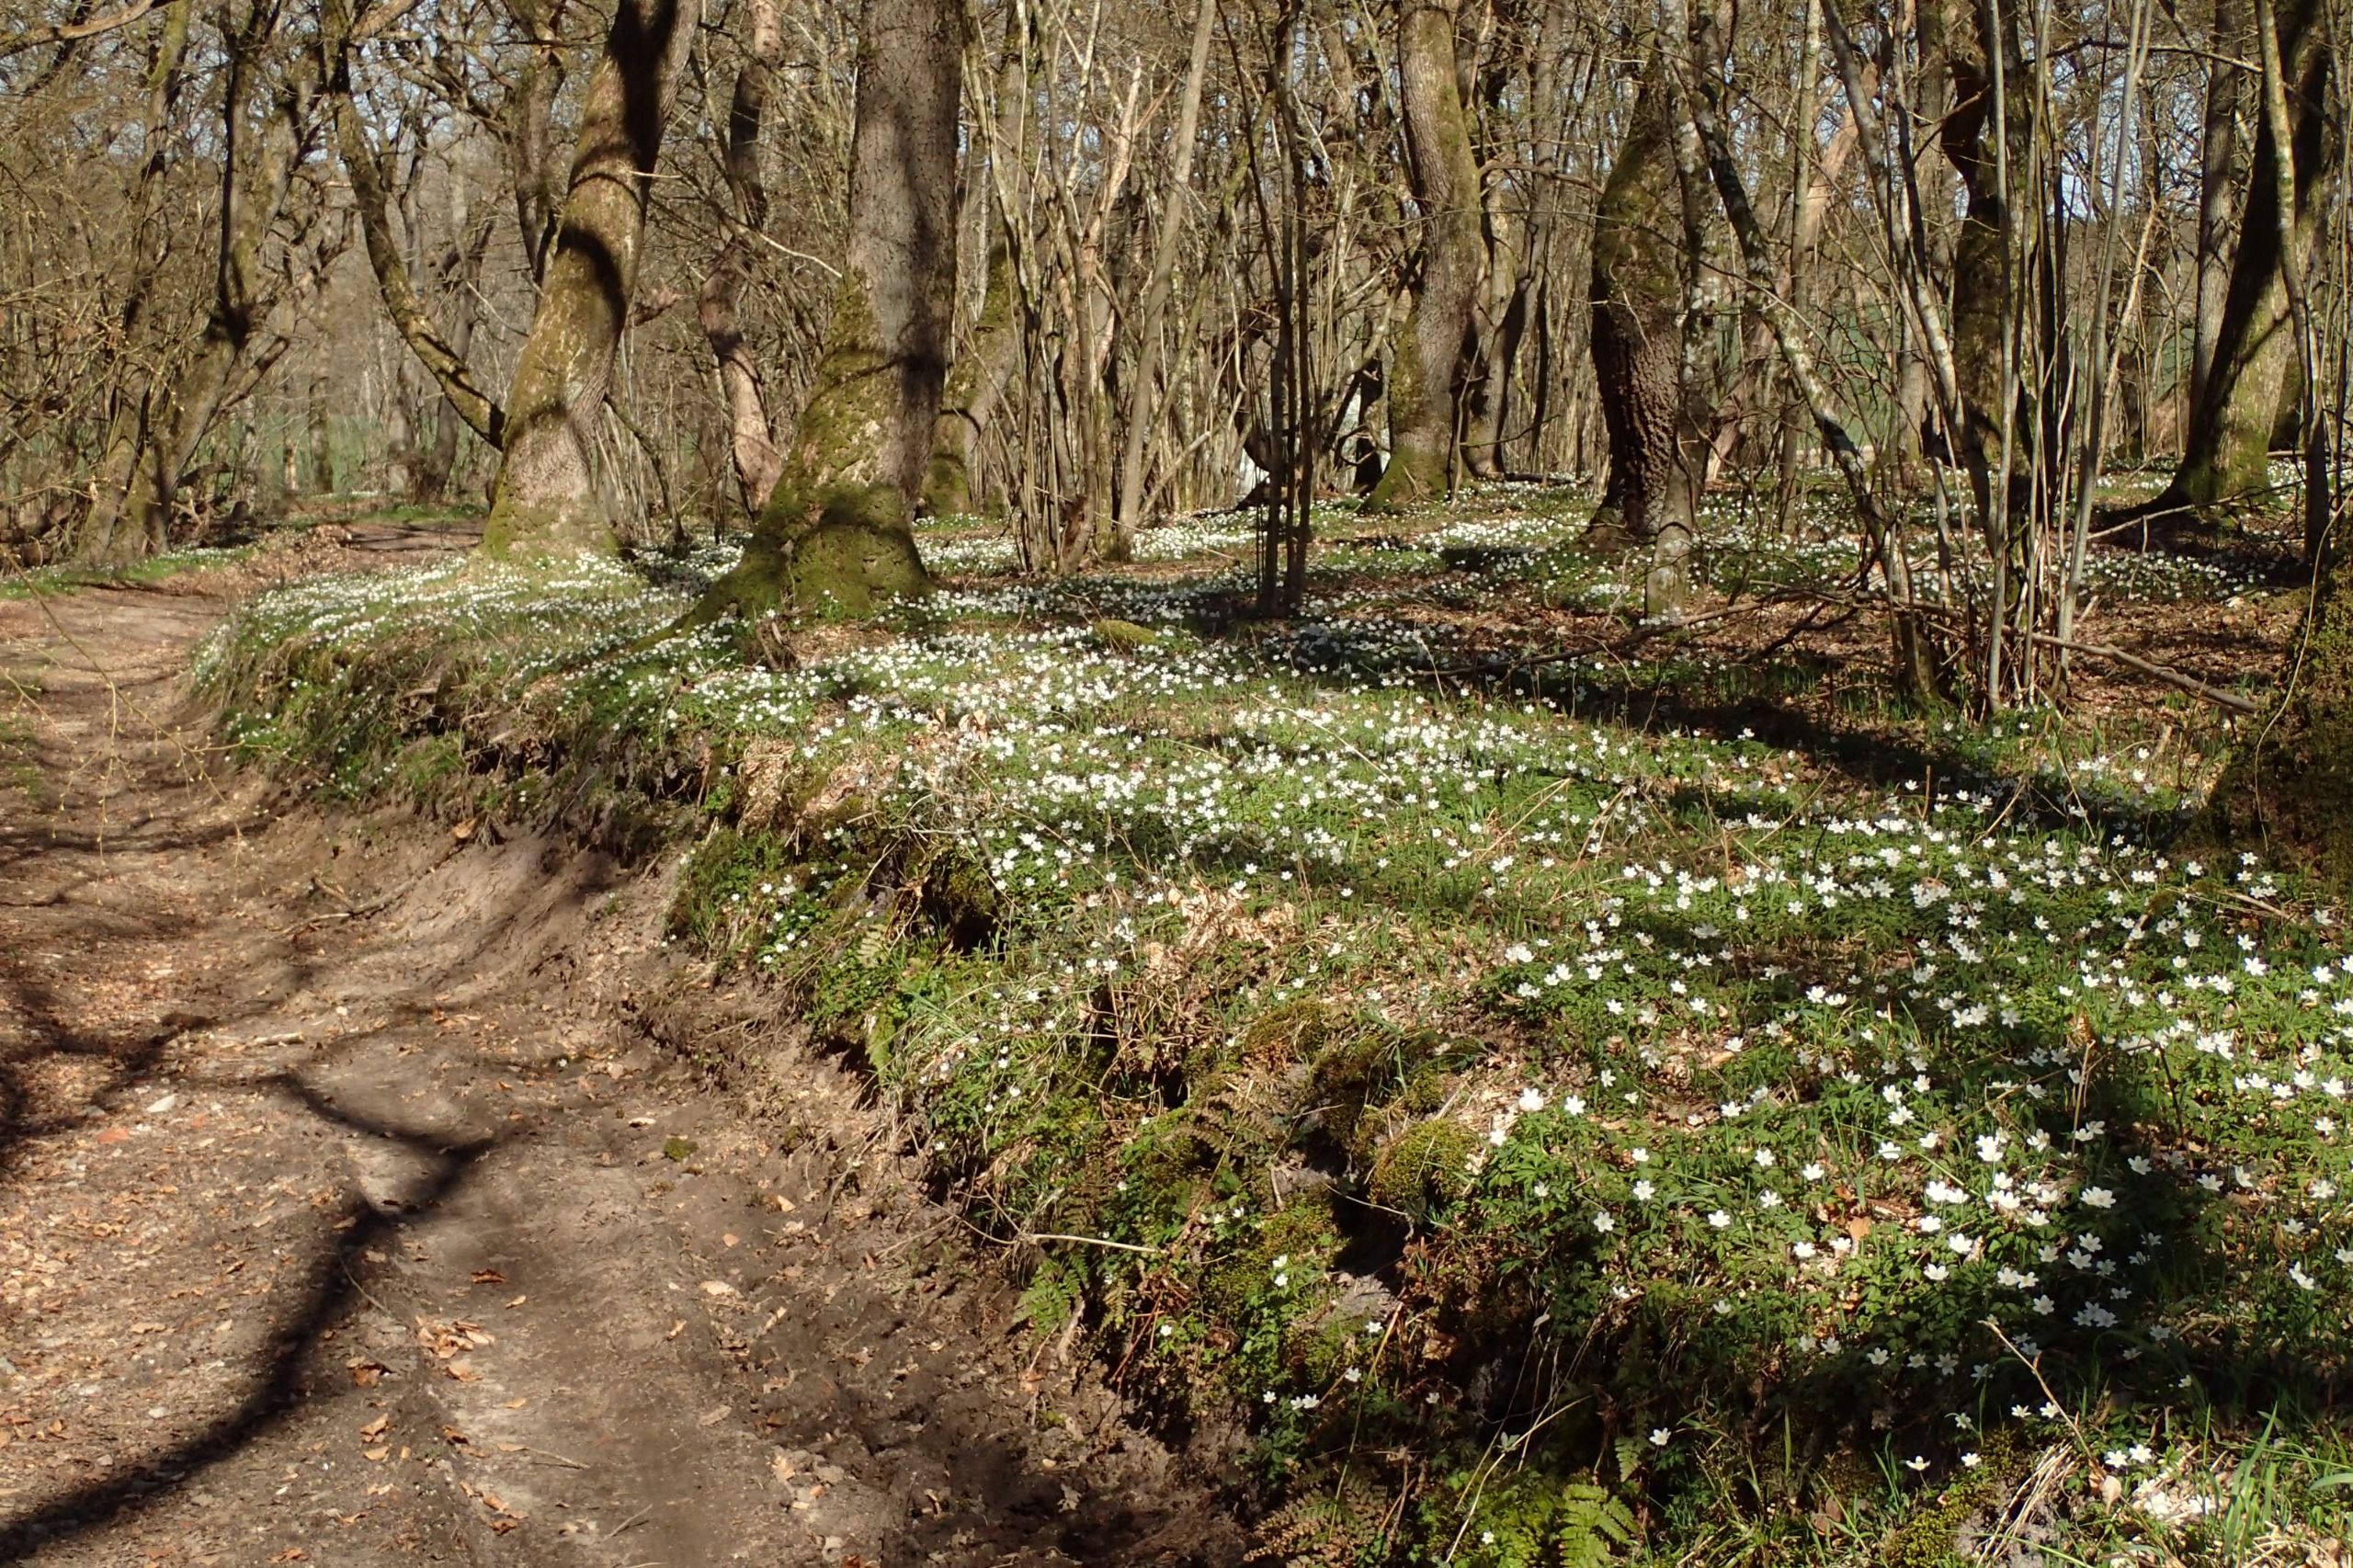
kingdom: Plantae
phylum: Tracheophyta
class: Magnoliopsida
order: Ranunculales
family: Ranunculaceae
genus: Anemone
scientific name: Anemone nemorosa
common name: Hvid anemone
